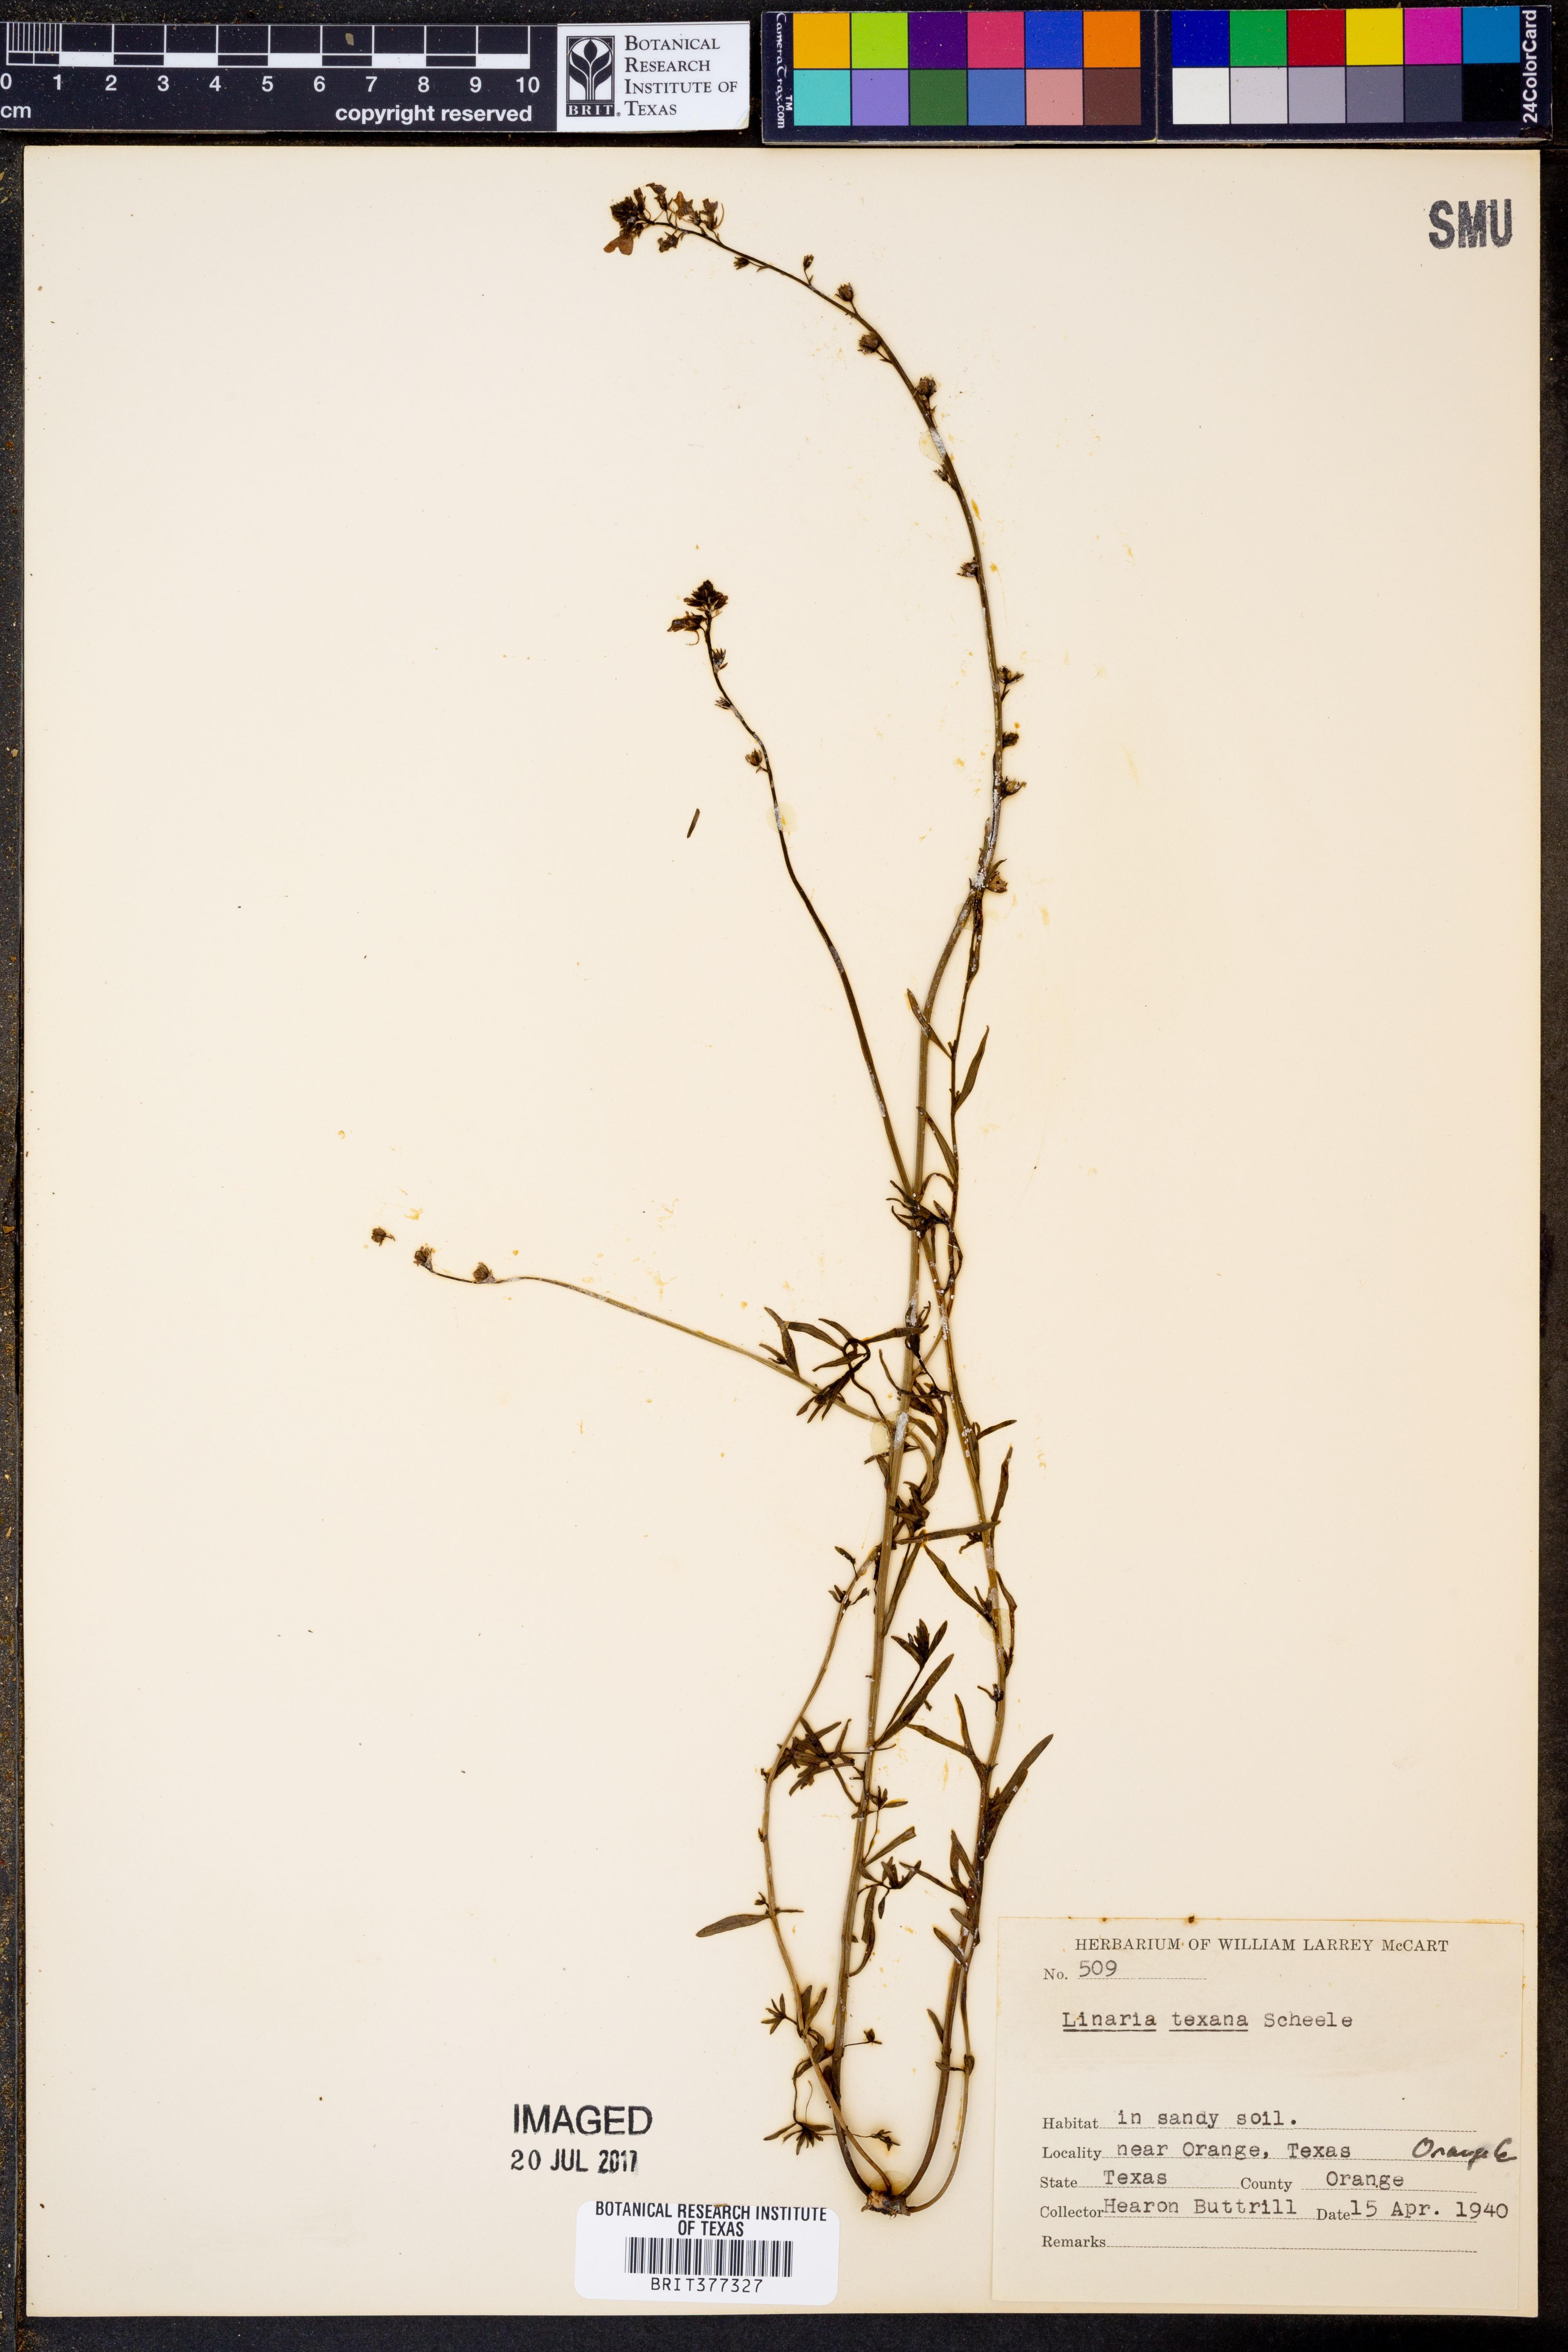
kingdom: Plantae
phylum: Tracheophyta
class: Magnoliopsida
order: Lamiales
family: Plantaginaceae
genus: Nuttallanthus
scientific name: Nuttallanthus texanus
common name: Texas toadflax
